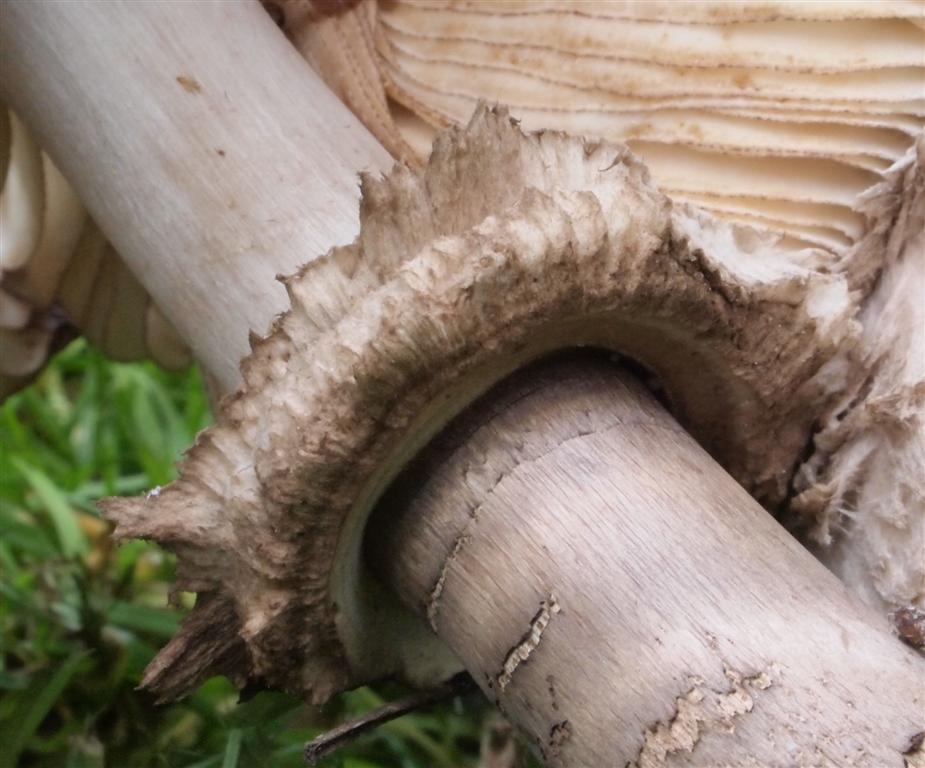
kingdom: Fungi
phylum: Basidiomycota
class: Agaricomycetes
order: Agaricales
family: Agaricaceae
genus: Chlorophyllum
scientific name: Chlorophyllum rhacodes
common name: ægte rabarberhat
